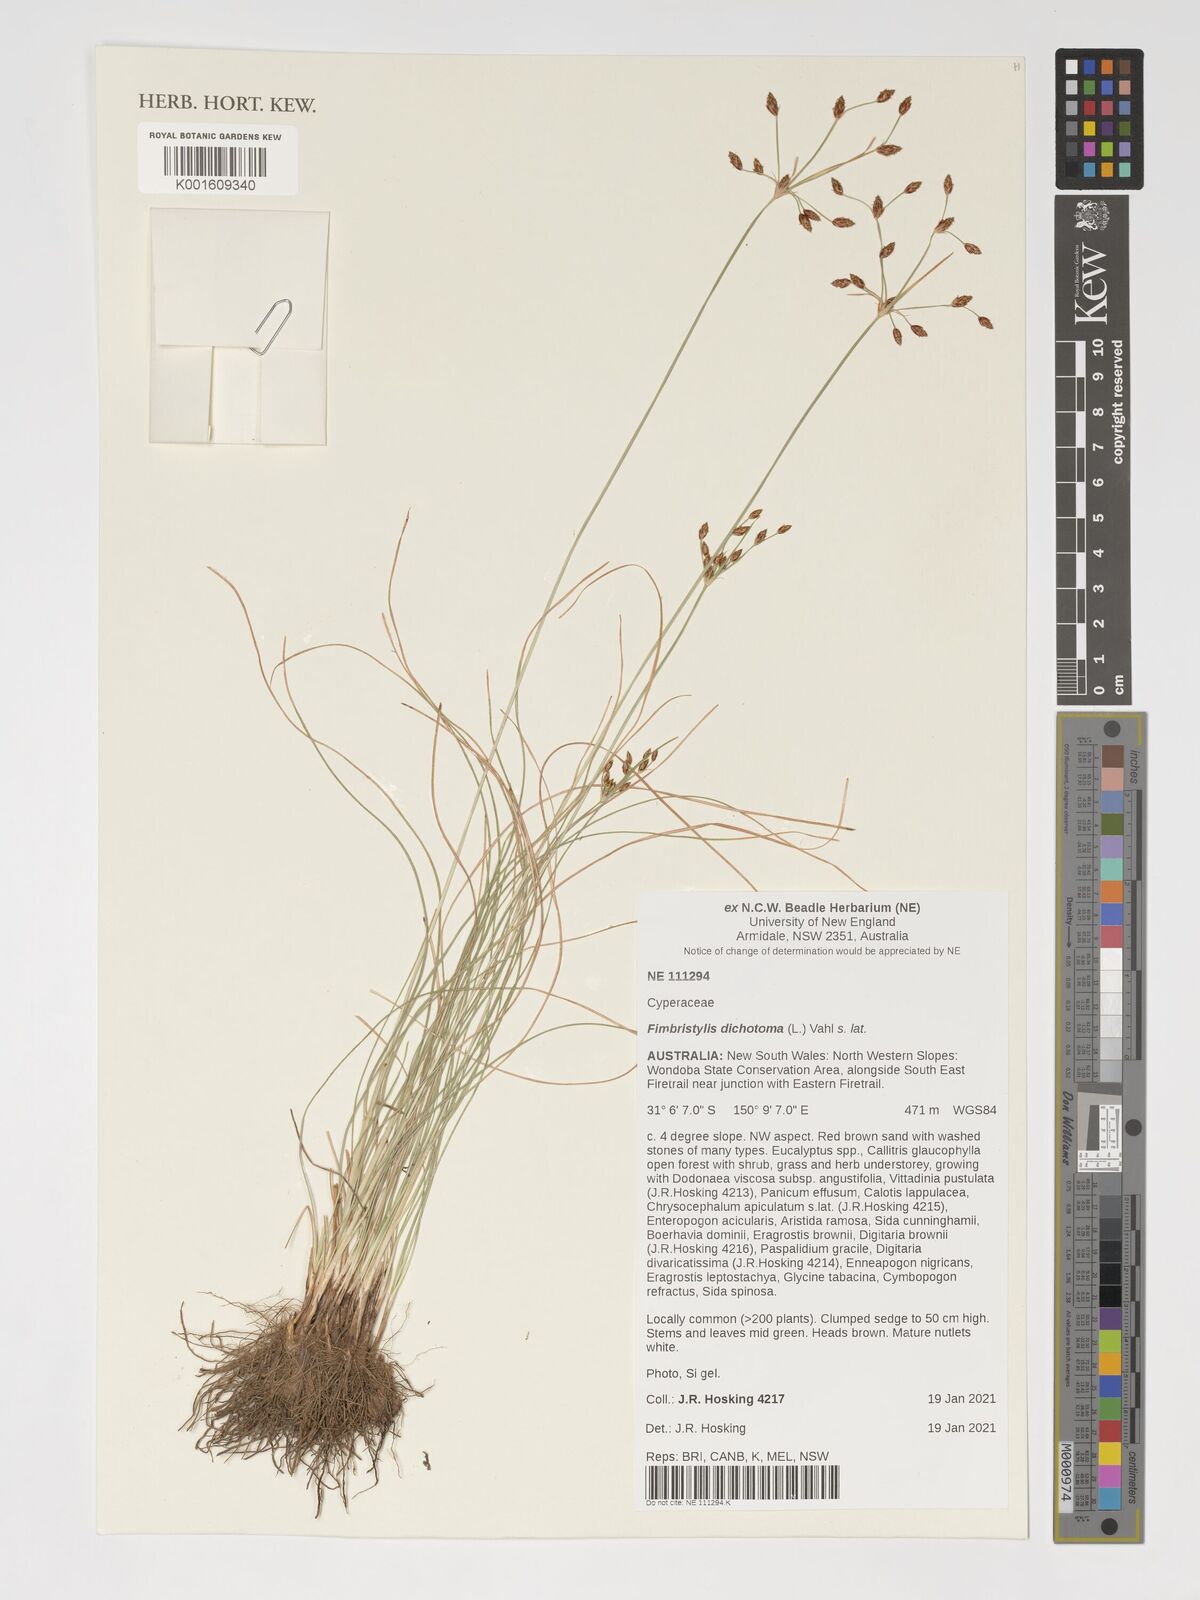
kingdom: Plantae
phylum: Tracheophyta
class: Liliopsida
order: Poales
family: Cyperaceae
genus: Fimbristylis
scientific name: Fimbristylis dichotoma
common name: Forked fimbry
